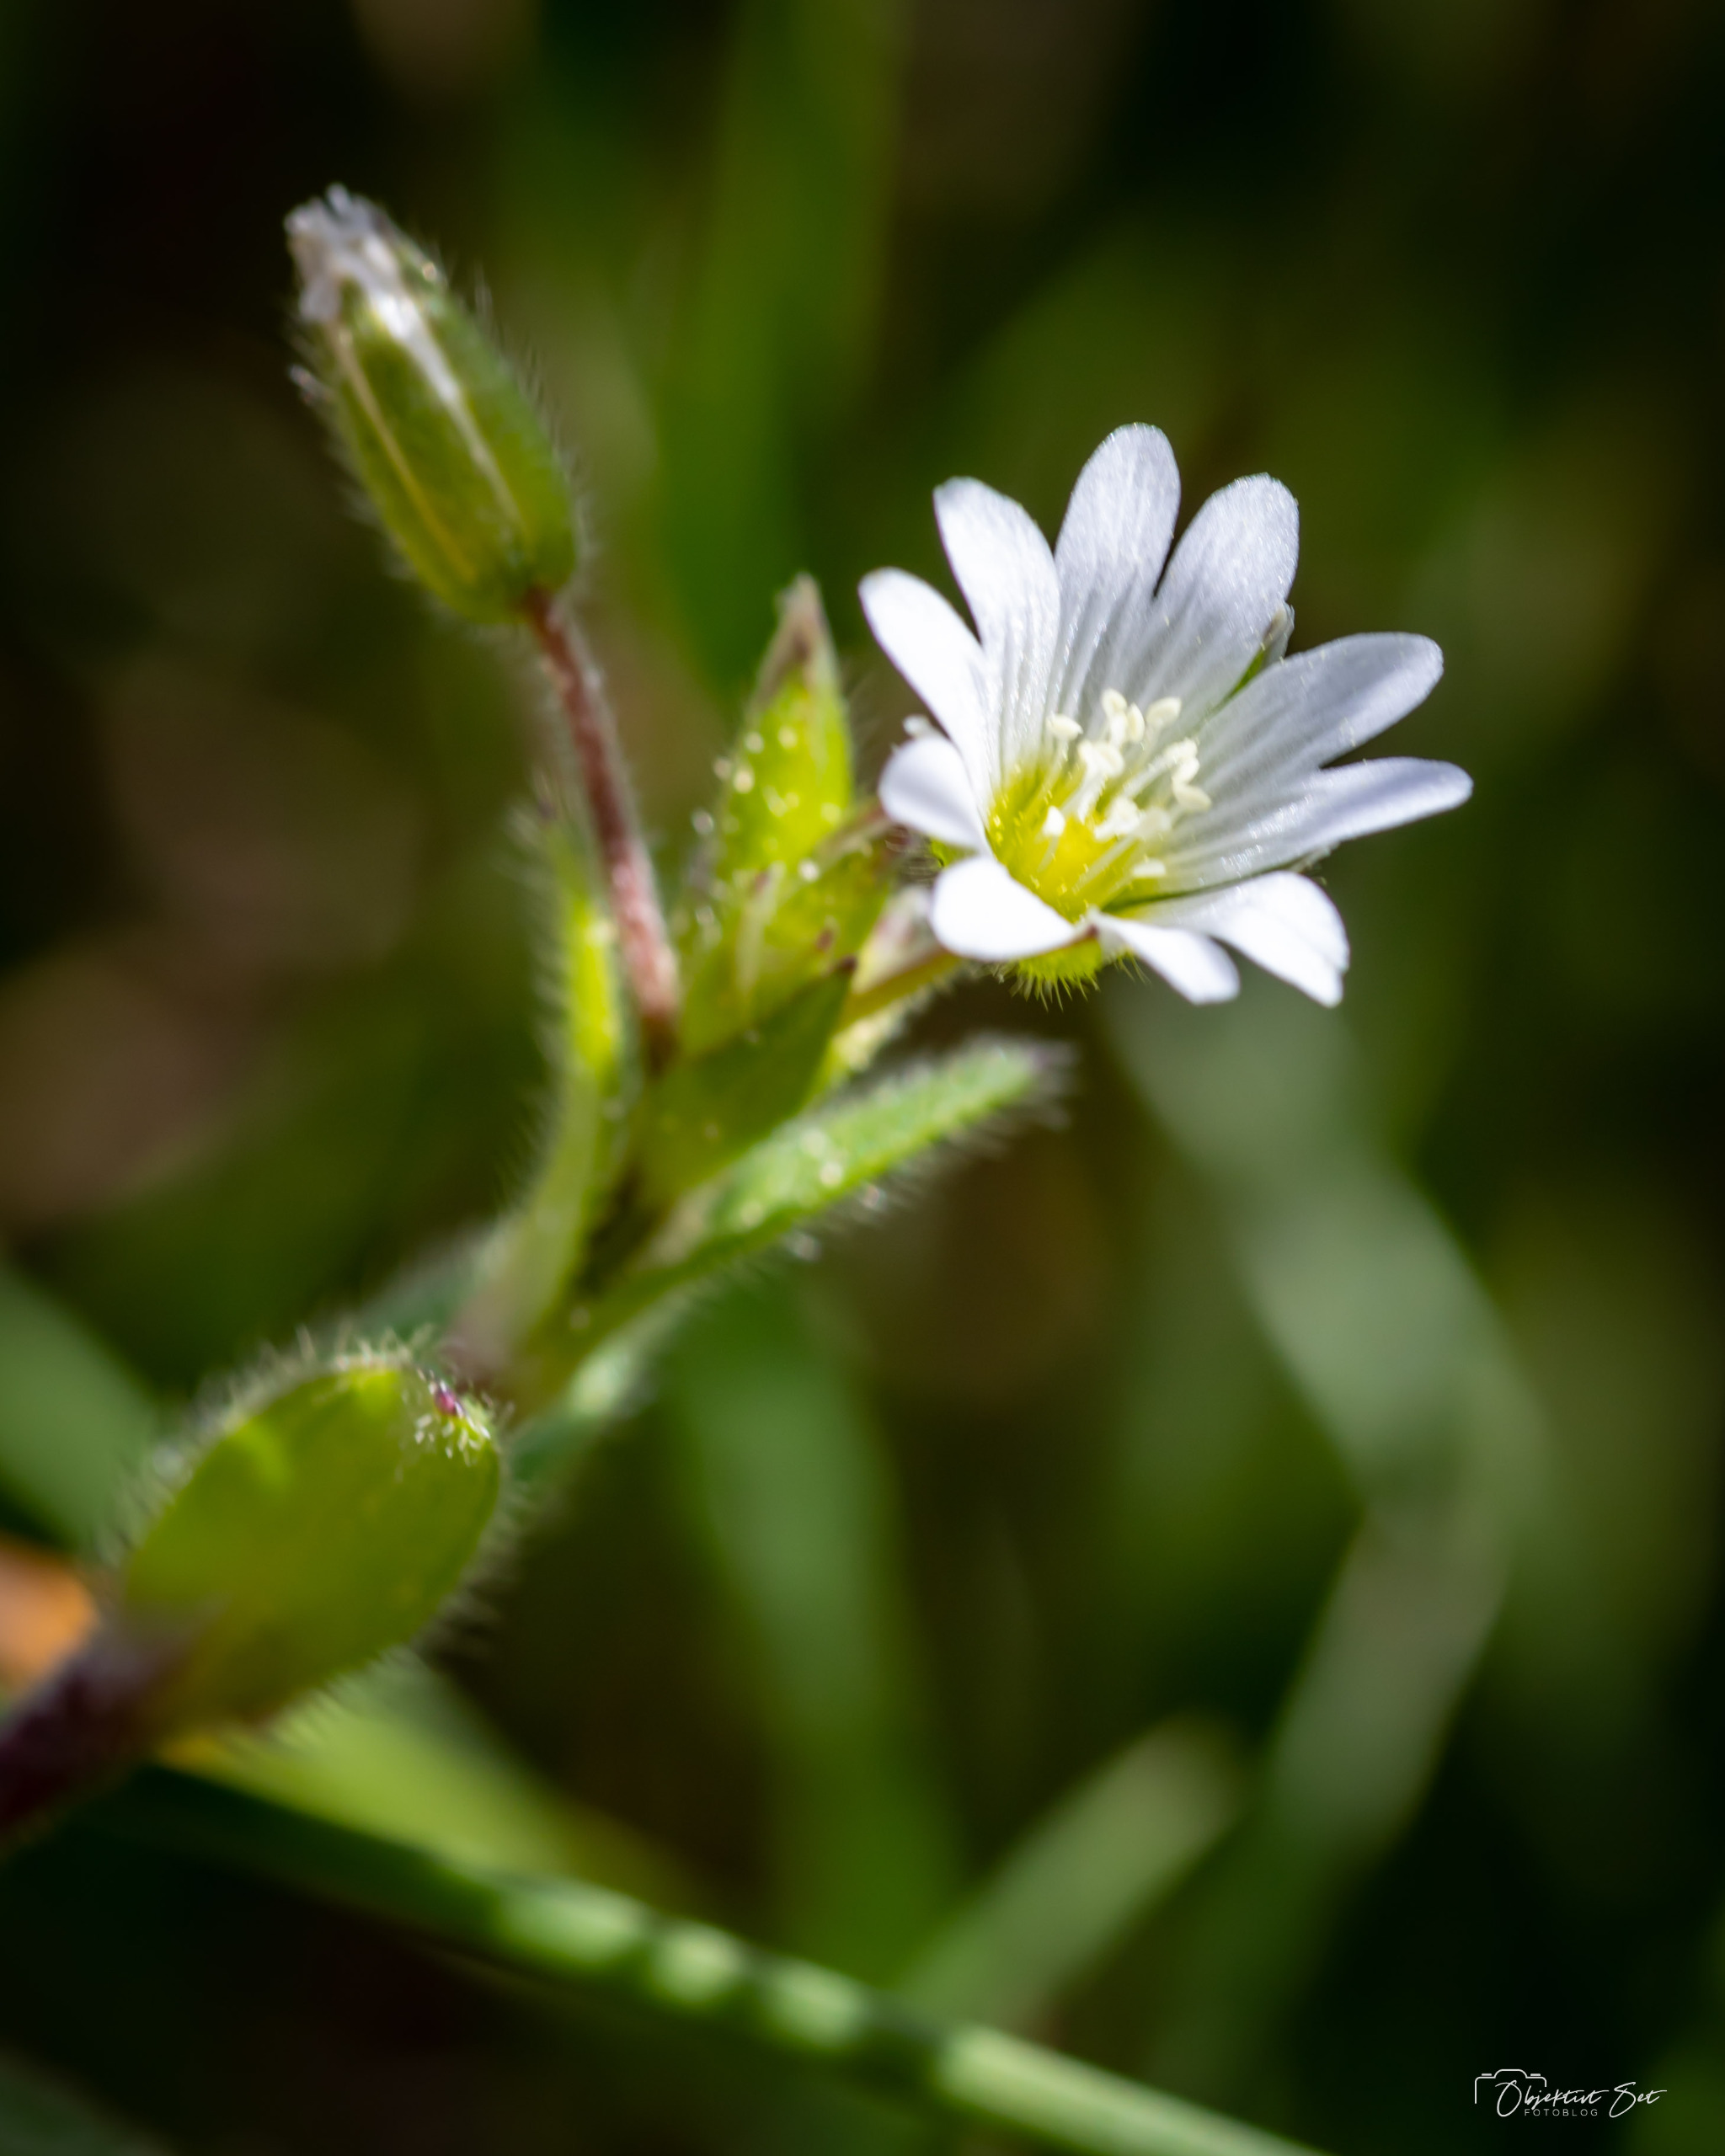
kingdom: Plantae
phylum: Tracheophyta
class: Magnoliopsida
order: Caryophyllales
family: Caryophyllaceae
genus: Cerastium
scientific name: Cerastium fontanum
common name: Almindelig hønsetarm
